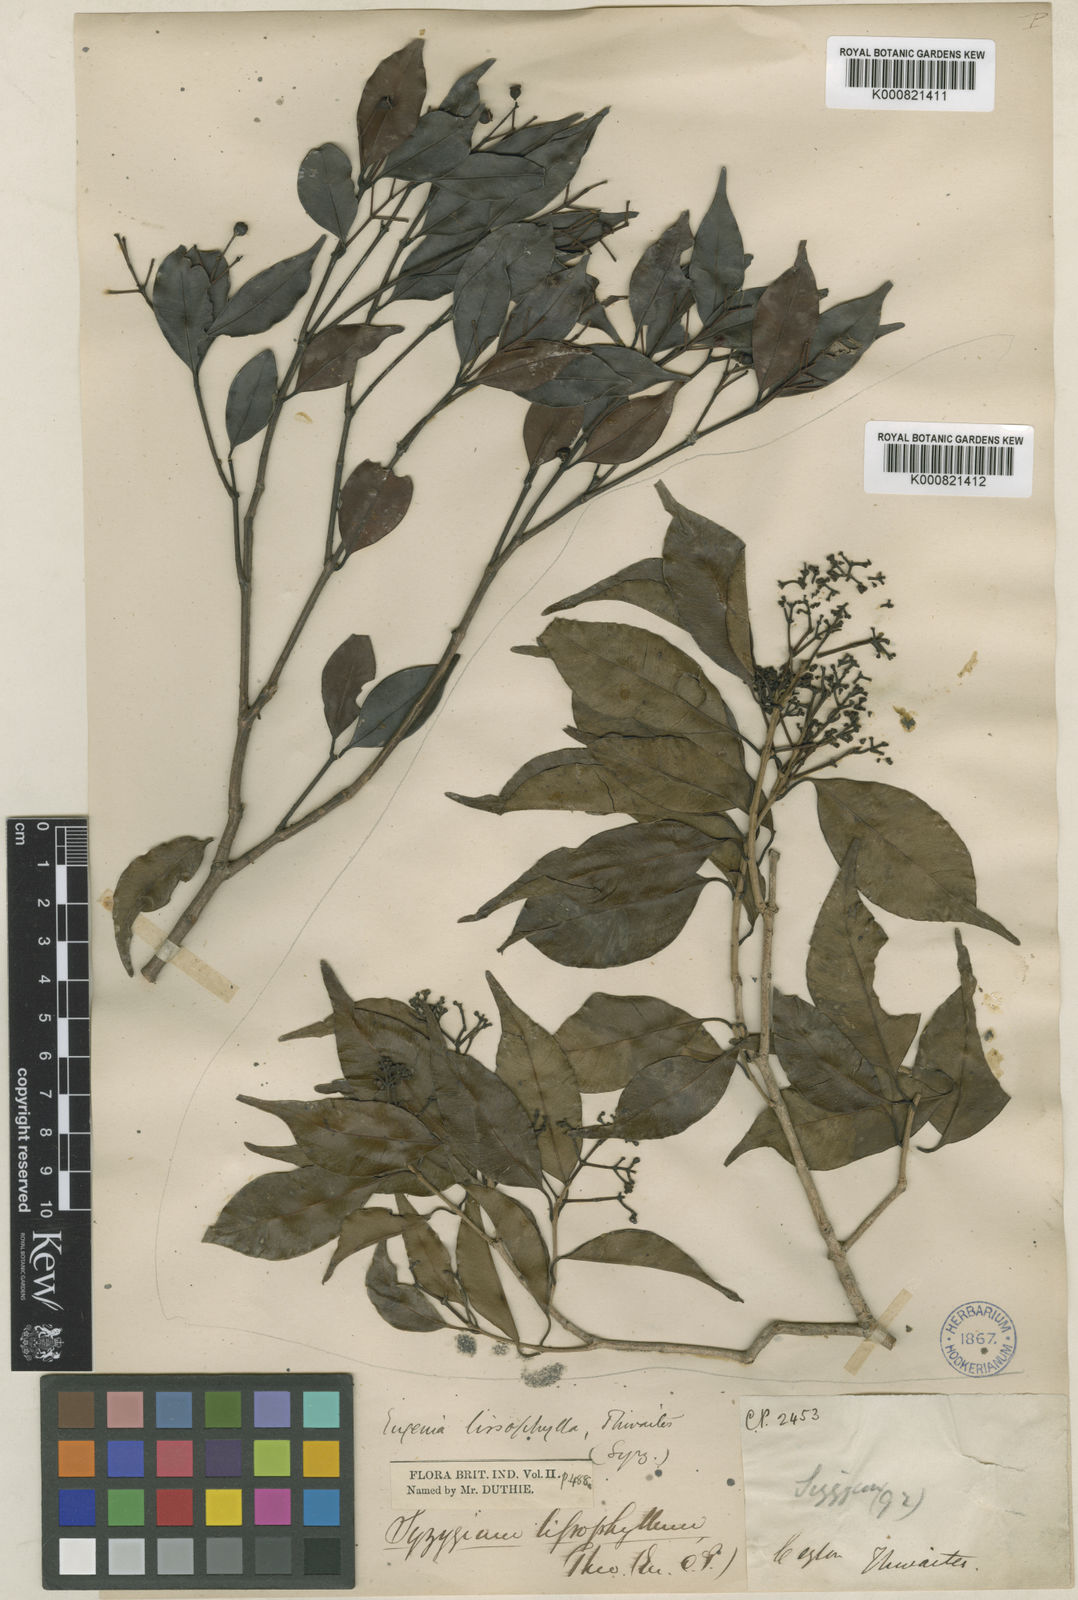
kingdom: Plantae
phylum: Tracheophyta
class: Magnoliopsida
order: Myrtales
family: Myrtaceae
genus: Syzygium
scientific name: Syzygium rubicundum
